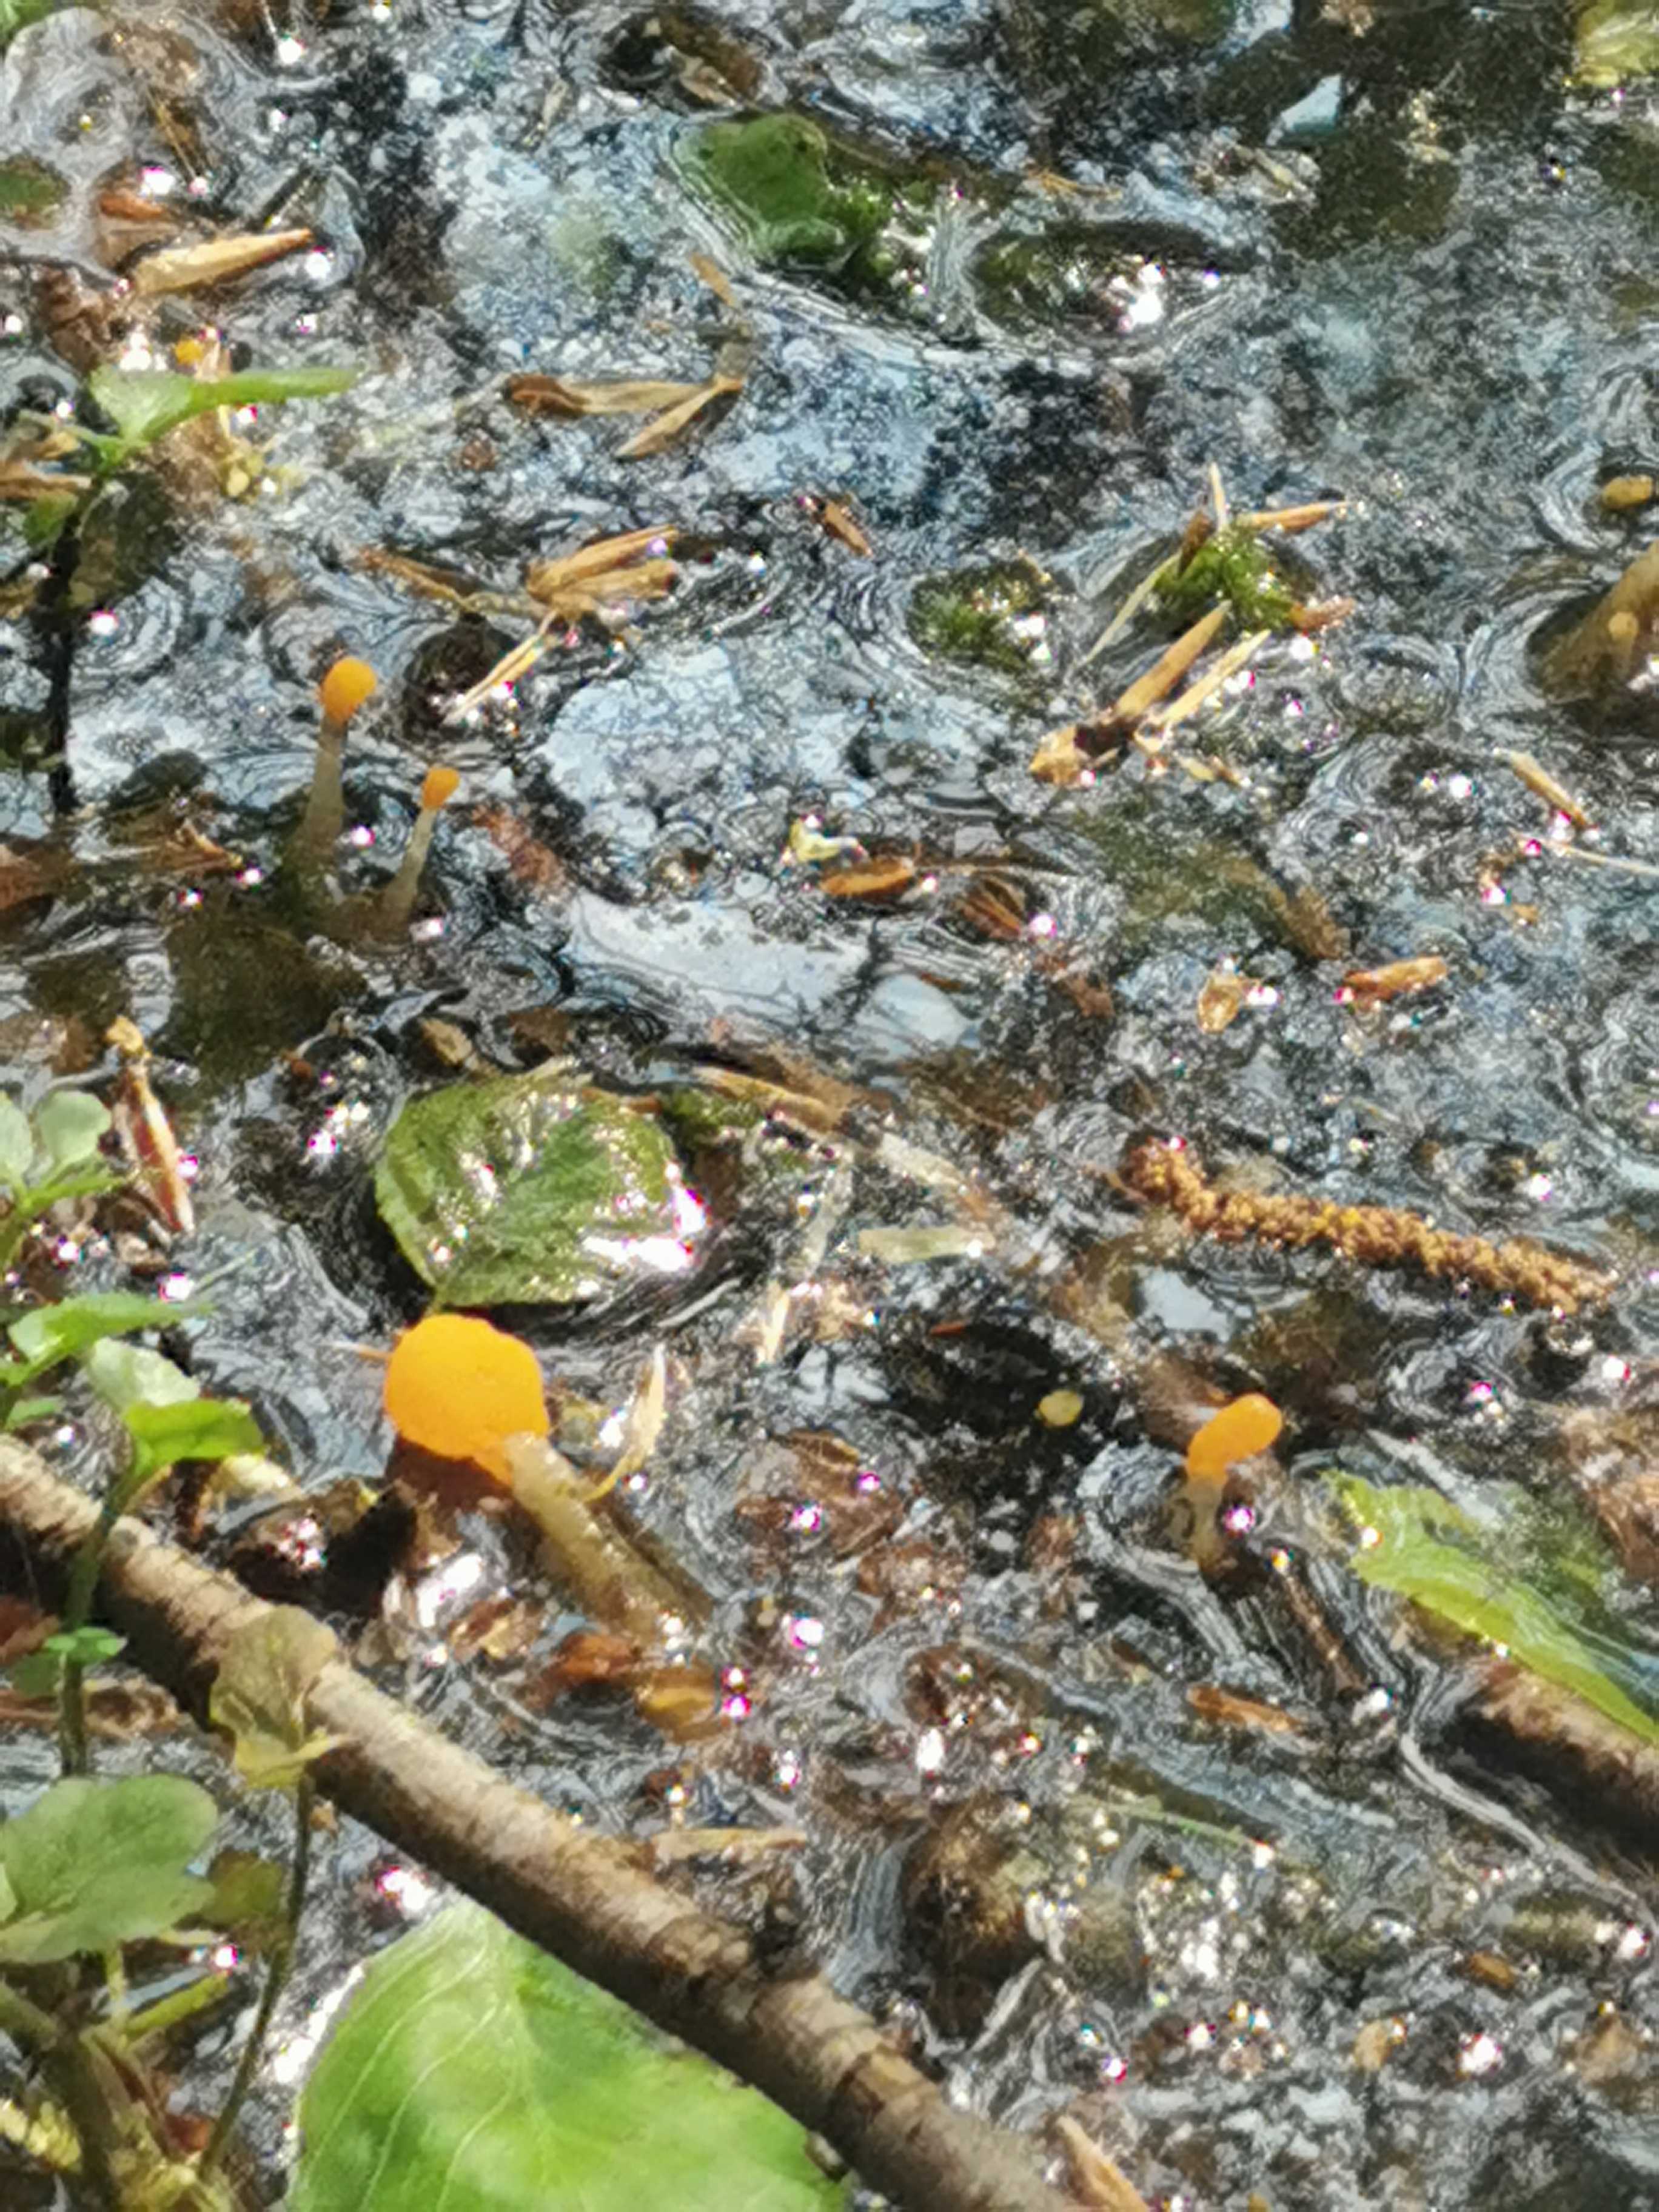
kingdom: Fungi
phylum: Ascomycota
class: Leotiomycetes
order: Helotiales
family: Cenangiaceae
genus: Mitrula
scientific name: Mitrula paludosa
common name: gul nøkketunge
